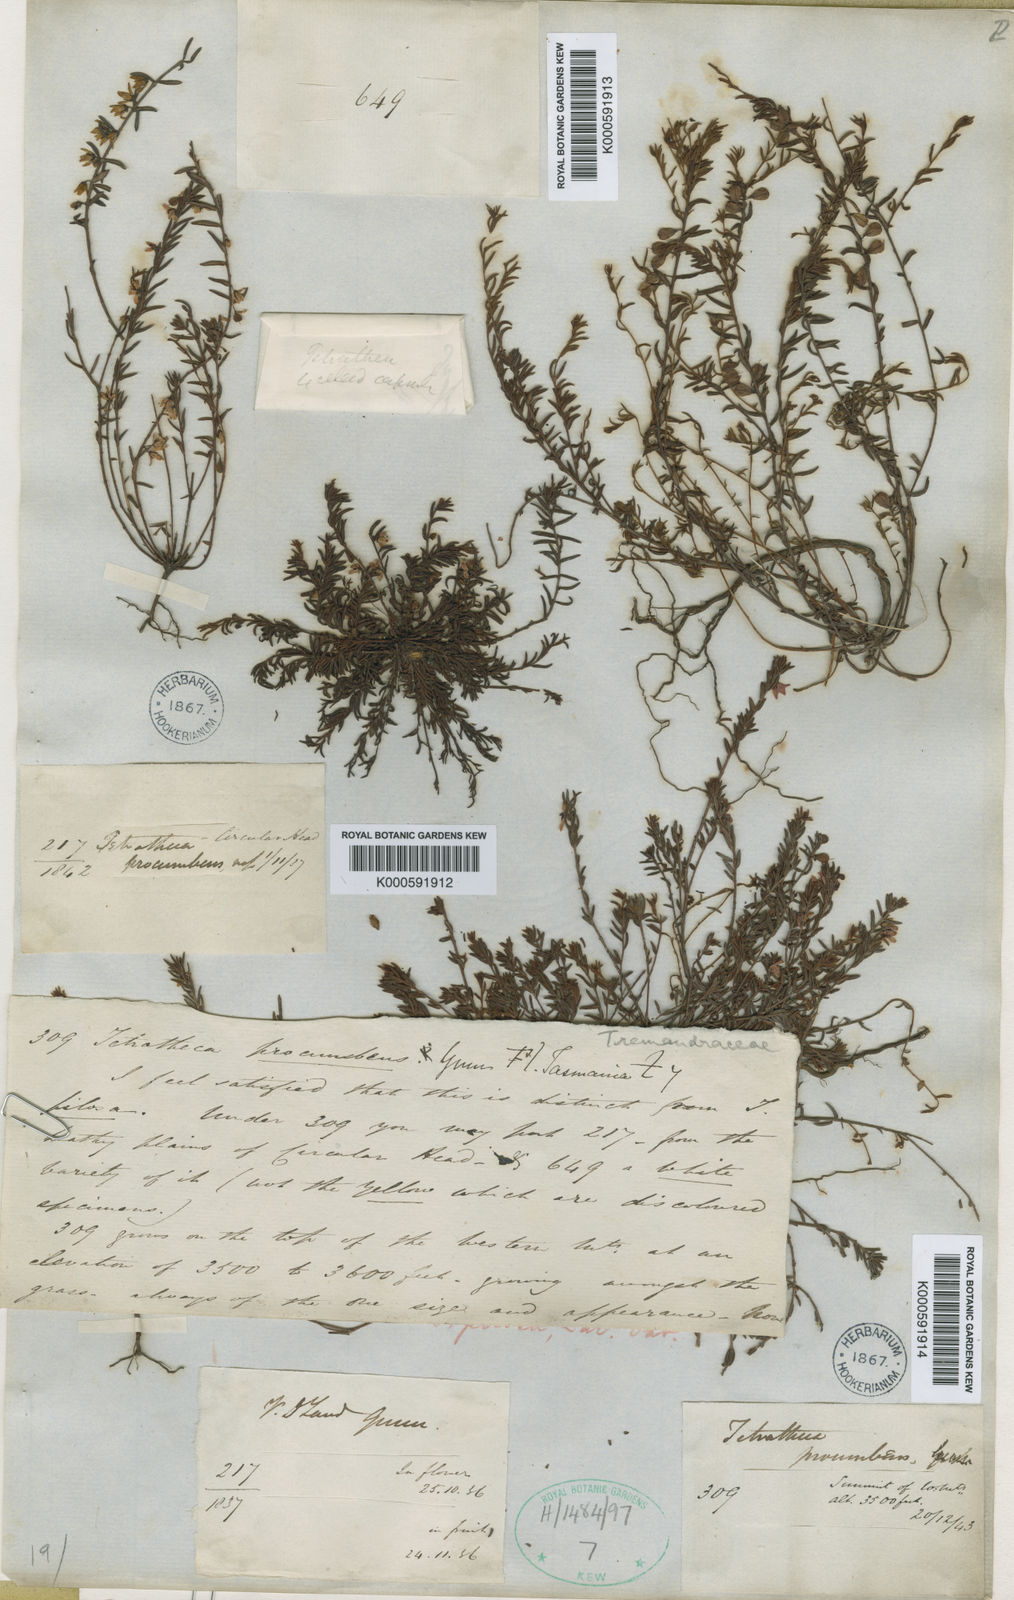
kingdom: Plantae
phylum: Tracheophyta
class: Magnoliopsida
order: Oxalidales
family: Elaeocarpaceae
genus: Tetratheca
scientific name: Tetratheca pilosa
